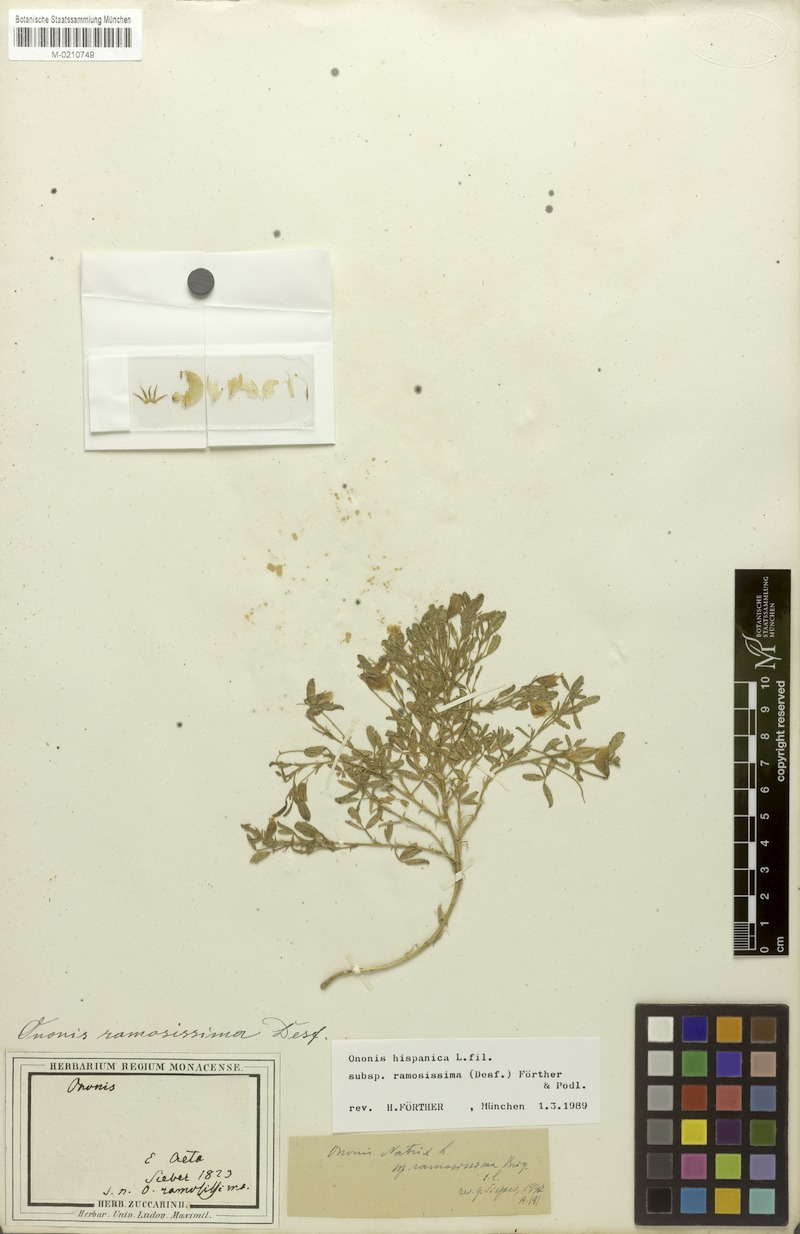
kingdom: Plantae
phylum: Tracheophyta
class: Magnoliopsida
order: Fabales
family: Fabaceae
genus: Ononis
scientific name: Ononis ramosissima
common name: Bush restharrow
